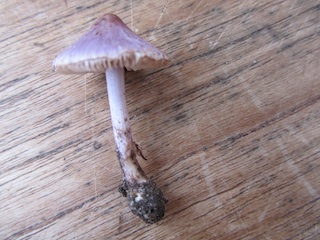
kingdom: Fungi
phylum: Basidiomycota
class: Agaricomycetes
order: Agaricales
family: Inocybaceae
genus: Inocybe
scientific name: Inocybe geophylla
